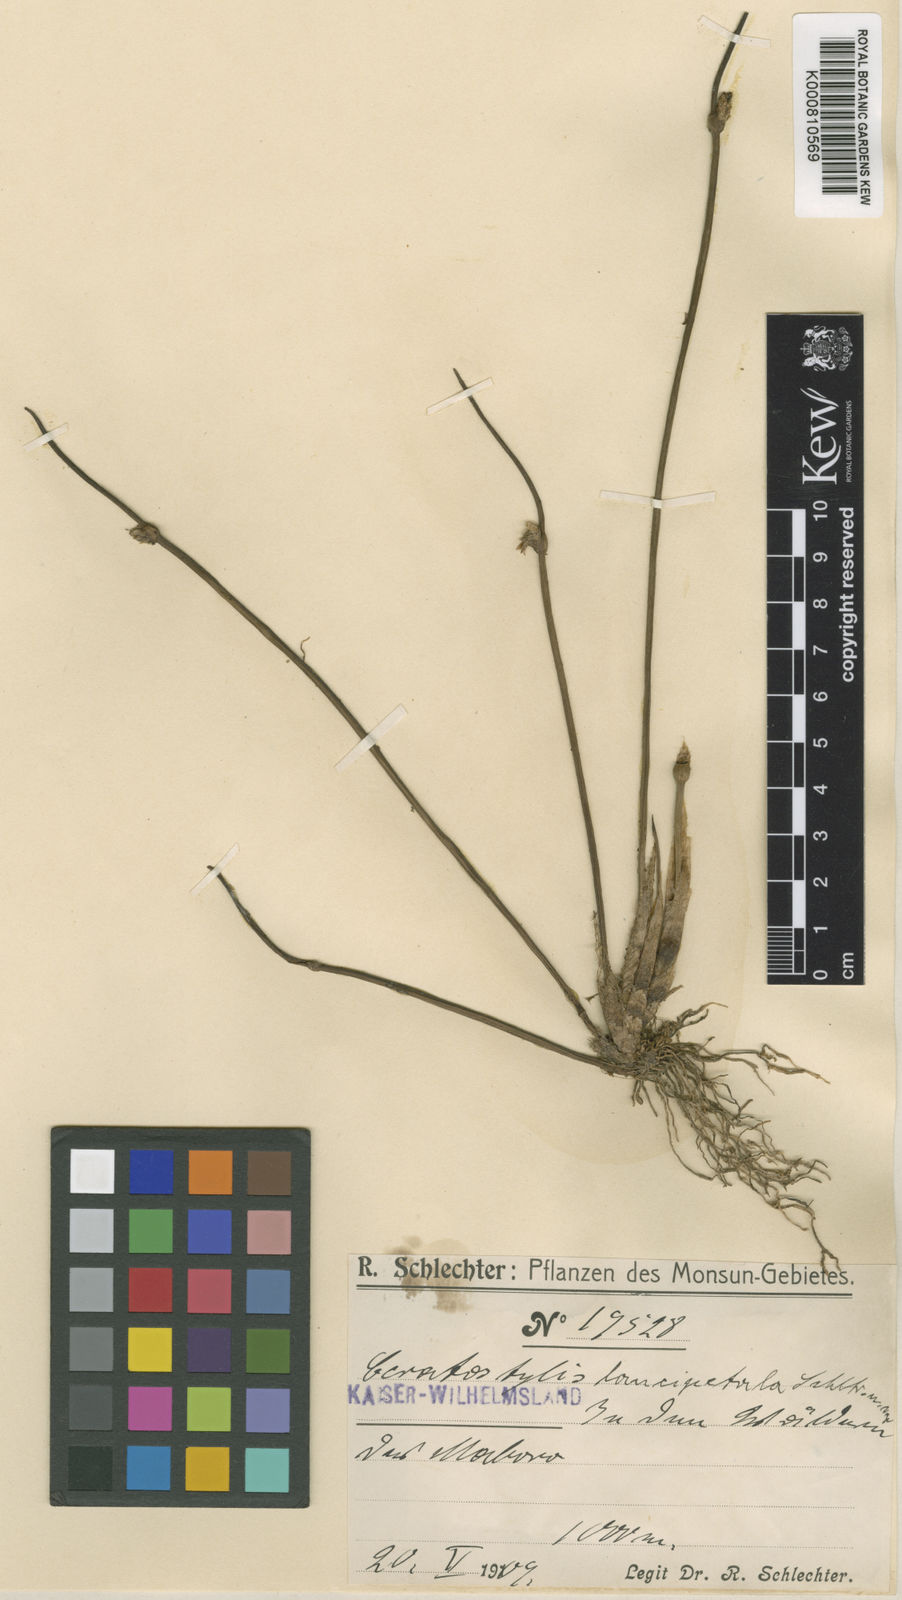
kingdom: Plantae
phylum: Tracheophyta
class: Liliopsida
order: Asparagales
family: Orchidaceae
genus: Ceratostylis
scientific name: Ceratostylis lancipetala
